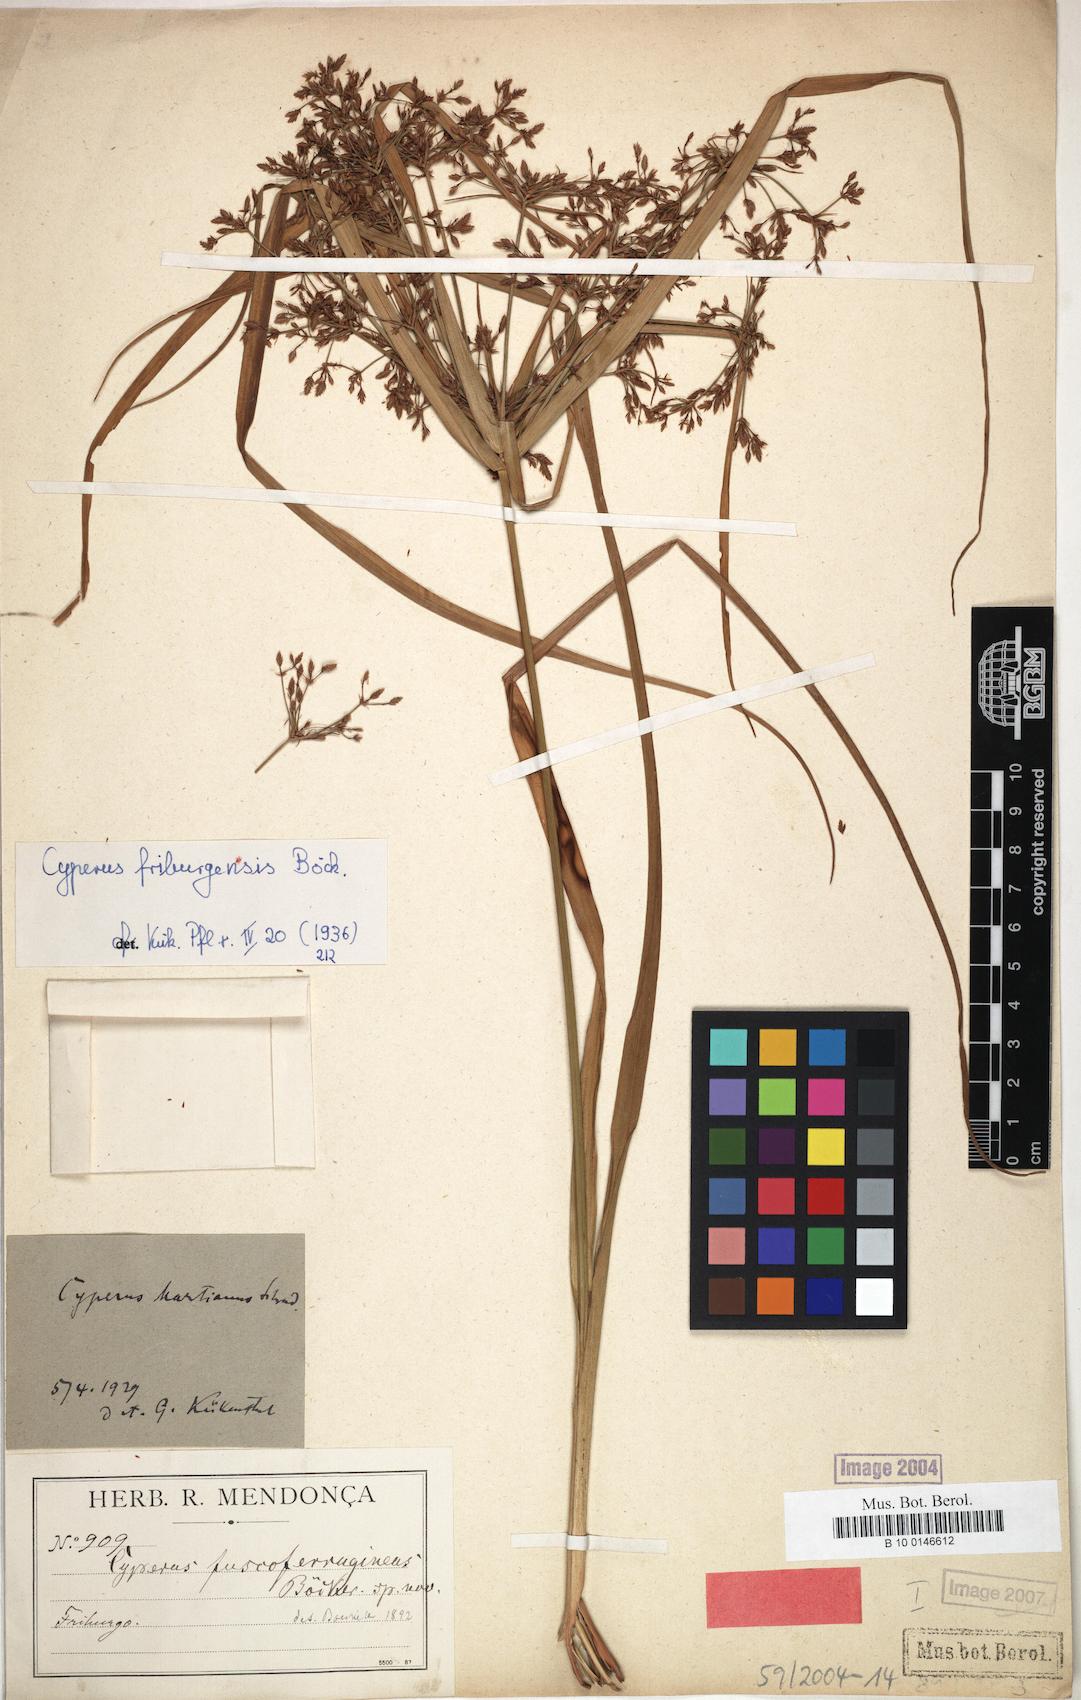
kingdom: Plantae
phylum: Tracheophyta
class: Liliopsida
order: Poales
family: Cyperaceae
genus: Cyperus
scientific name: Cyperus friburgensis
